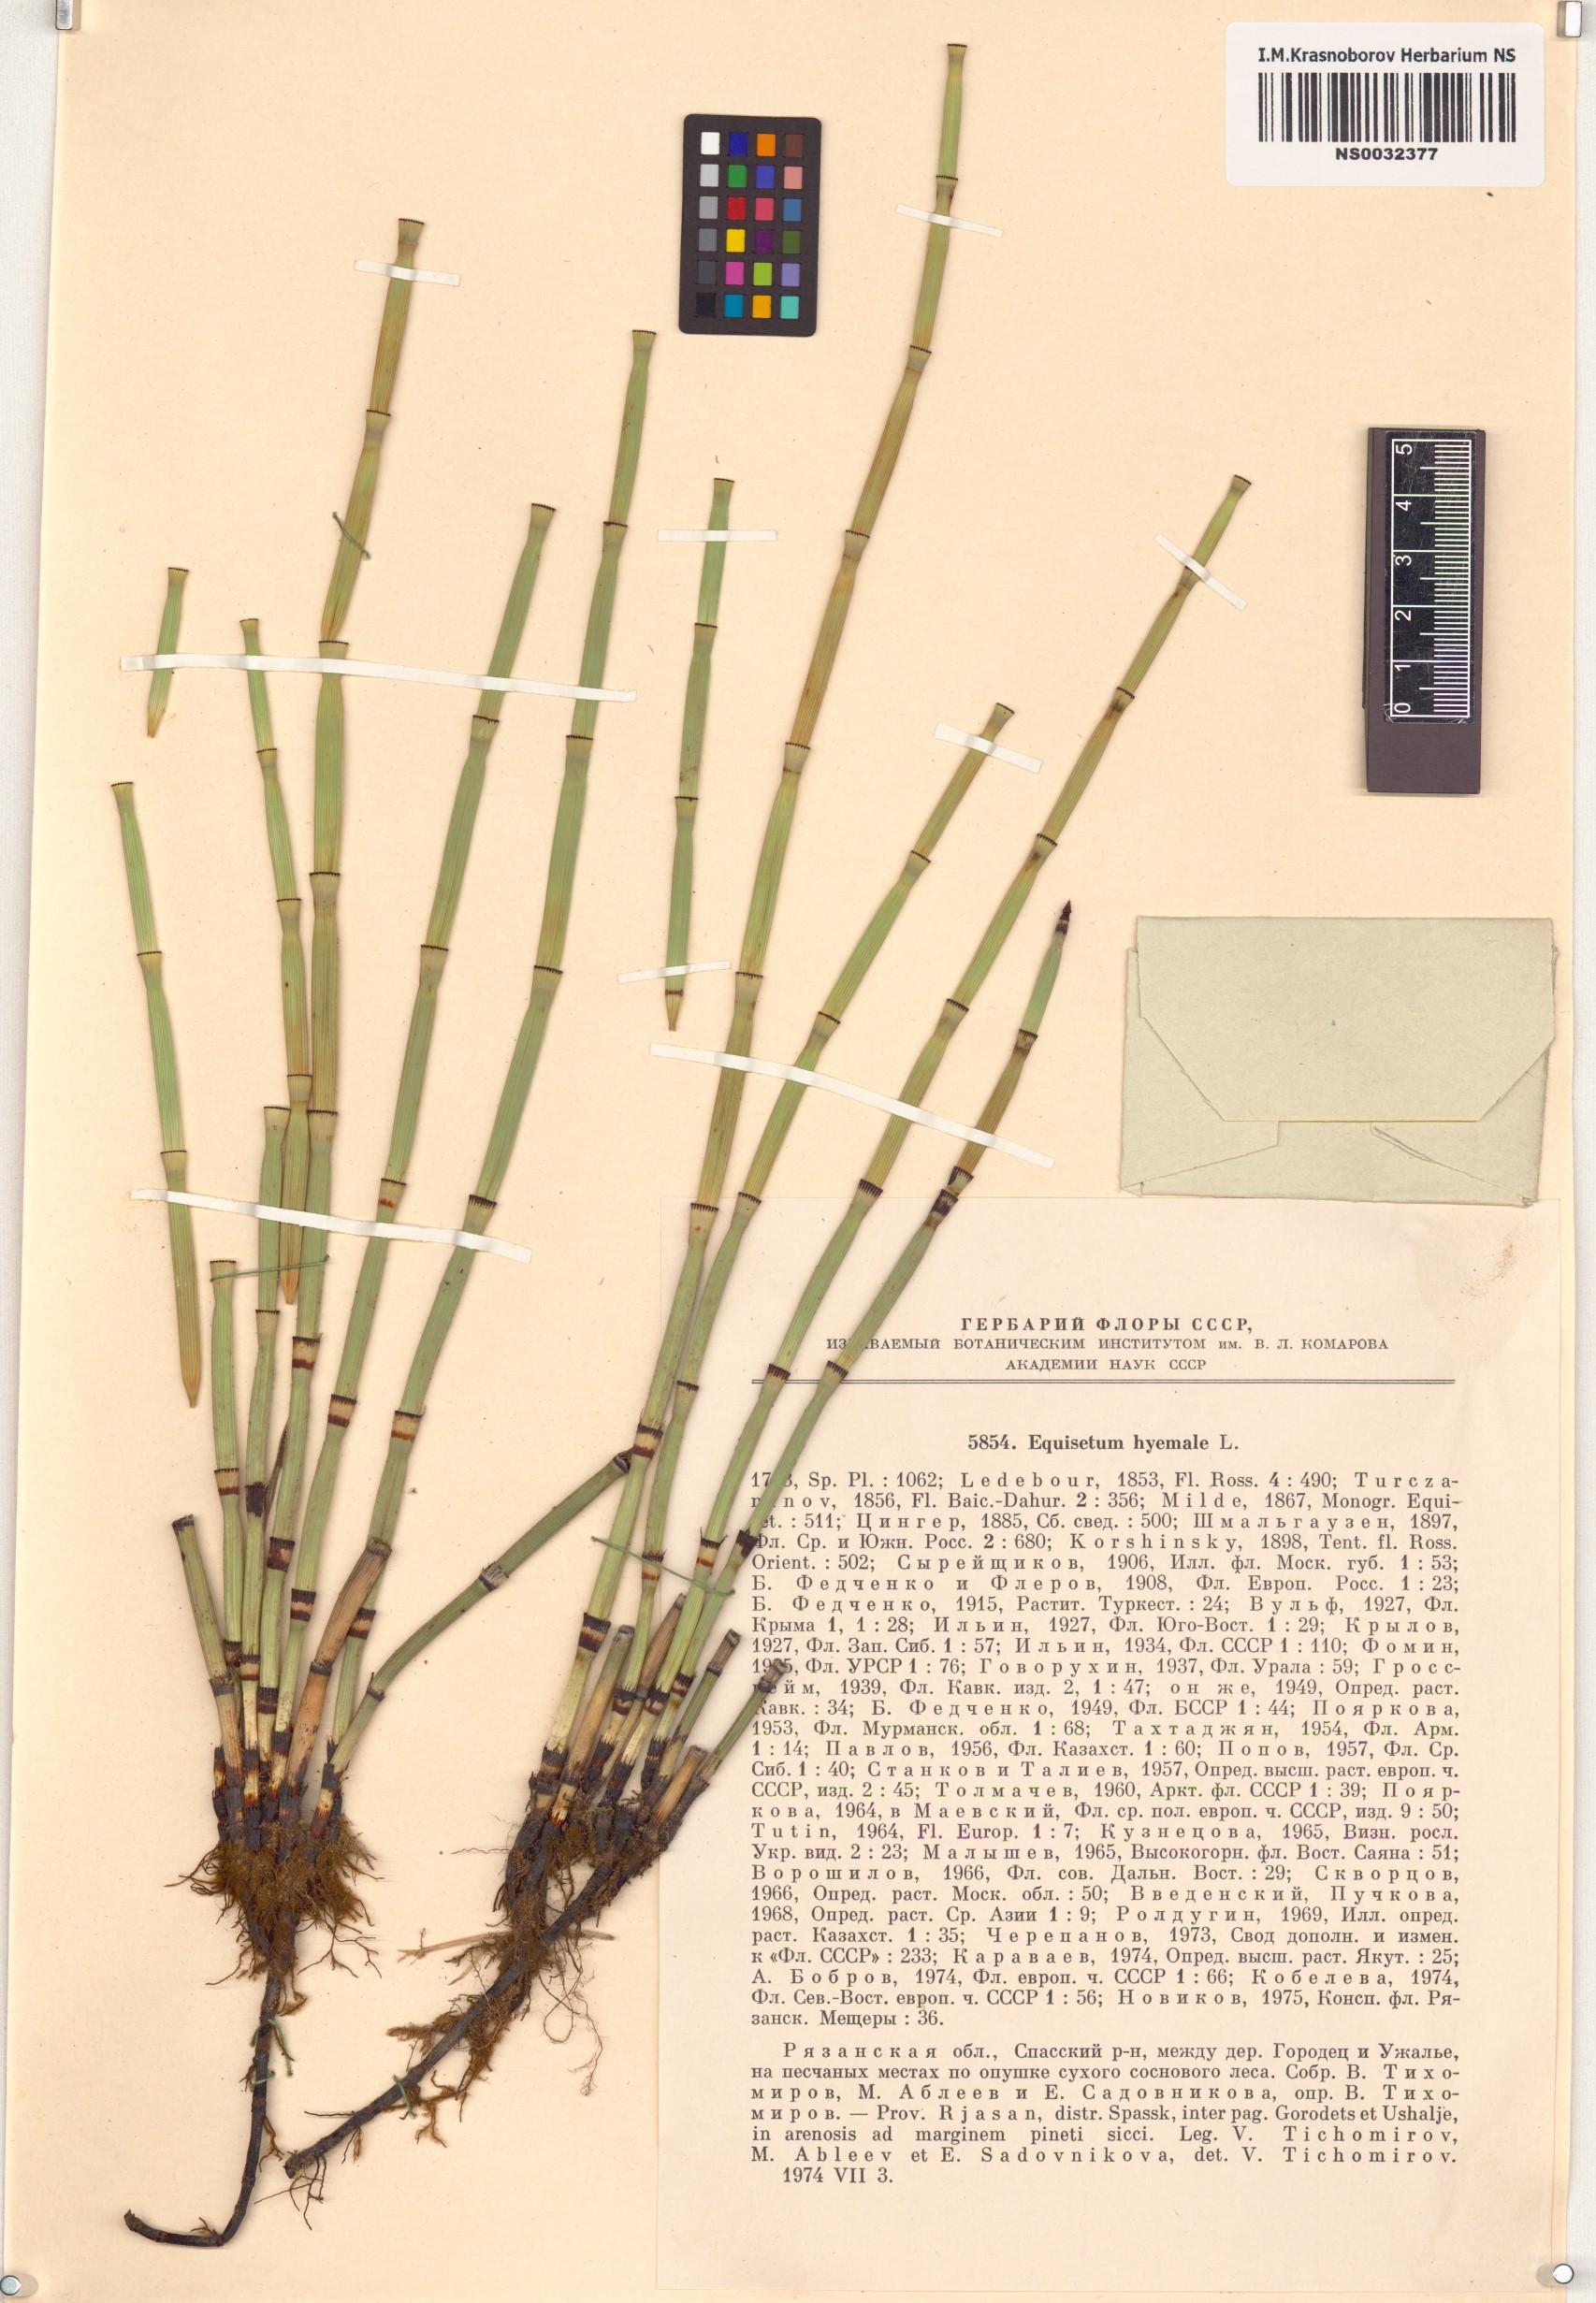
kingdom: Plantae
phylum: Tracheophyta
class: Polypodiopsida
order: Equisetales
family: Equisetaceae
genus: Equisetum
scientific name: Equisetum hyemale
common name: Rough horsetail
